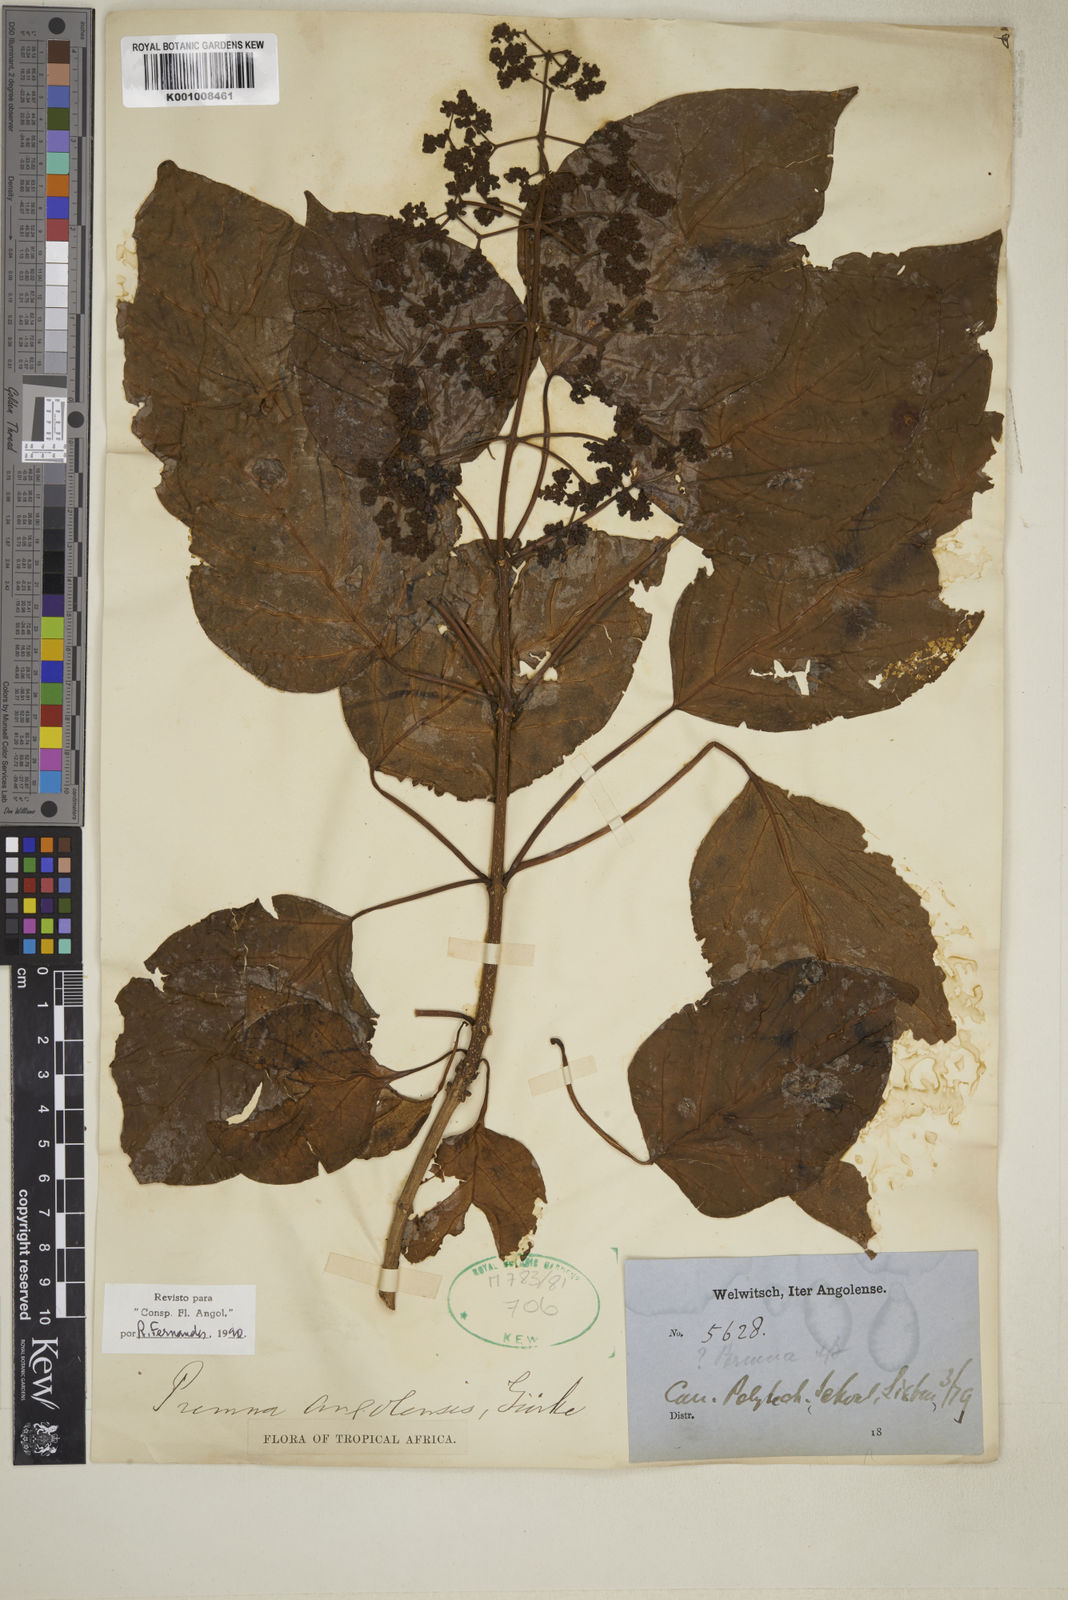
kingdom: Plantae
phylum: Tracheophyta
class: Magnoliopsida
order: Lamiales
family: Lamiaceae
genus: Premna
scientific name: Premna
